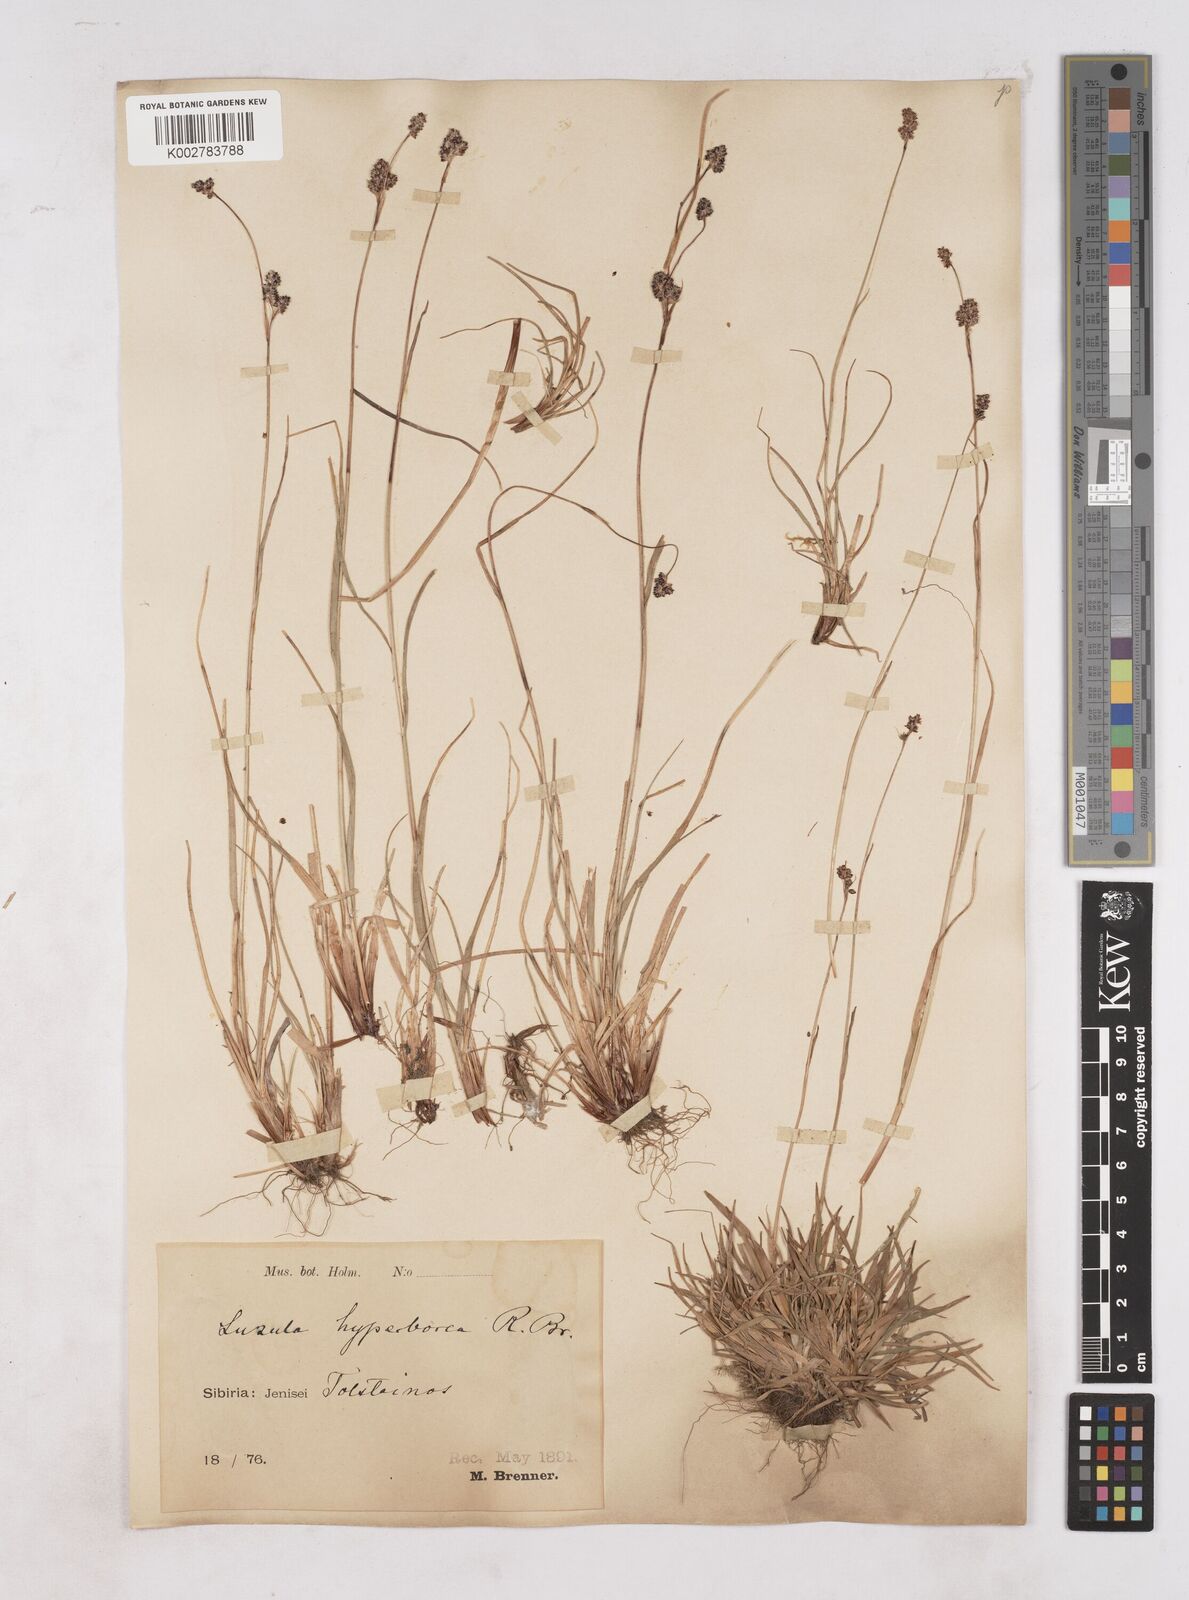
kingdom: Plantae
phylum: Tracheophyta
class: Liliopsida
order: Poales
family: Juncaceae
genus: Luzula
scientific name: Luzula nivalis
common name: Arctic woodrush
